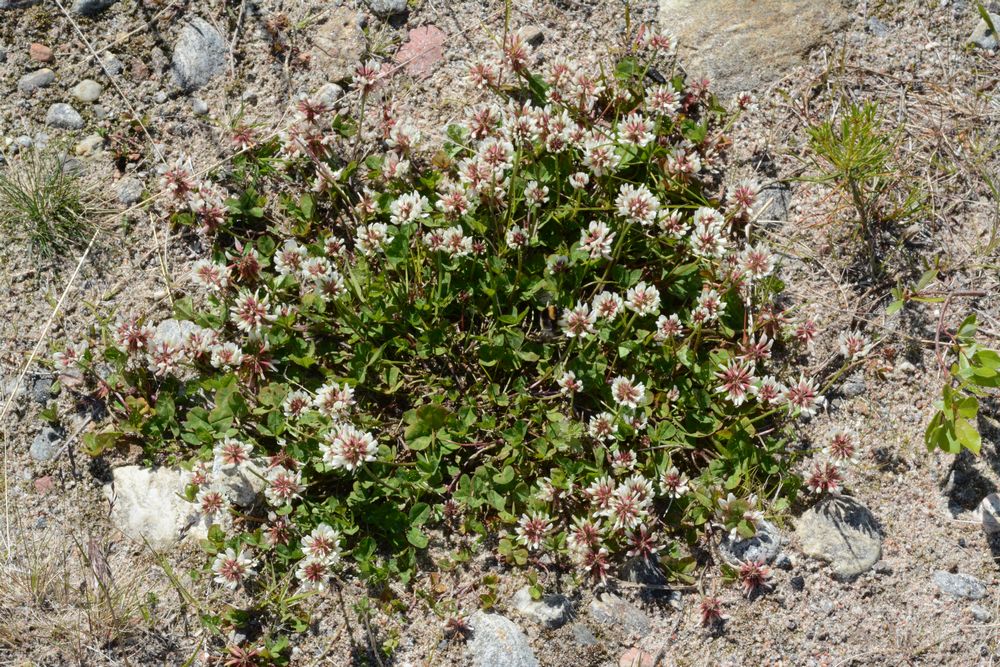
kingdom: Plantae
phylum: Tracheophyta
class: Magnoliopsida
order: Fabales
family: Fabaceae
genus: Trifolium
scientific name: Trifolium repens
